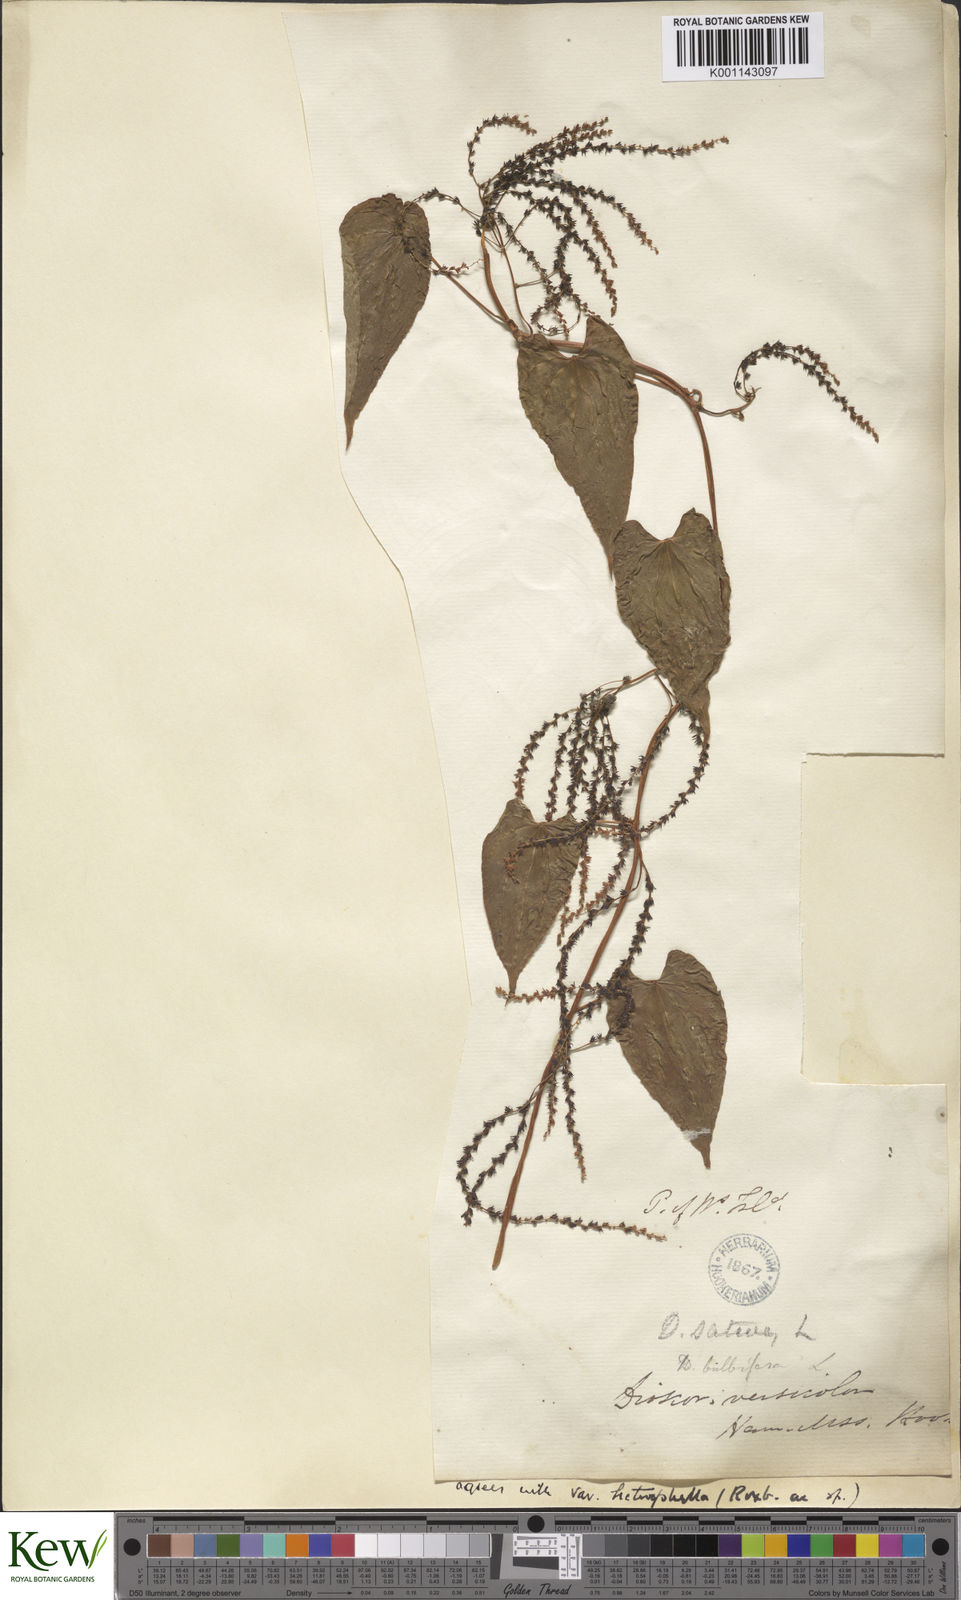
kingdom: Plantae
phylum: Tracheophyta
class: Liliopsida
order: Dioscoreales
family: Dioscoreaceae
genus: Dioscorea
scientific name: Dioscorea bulbifera
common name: Air yam
